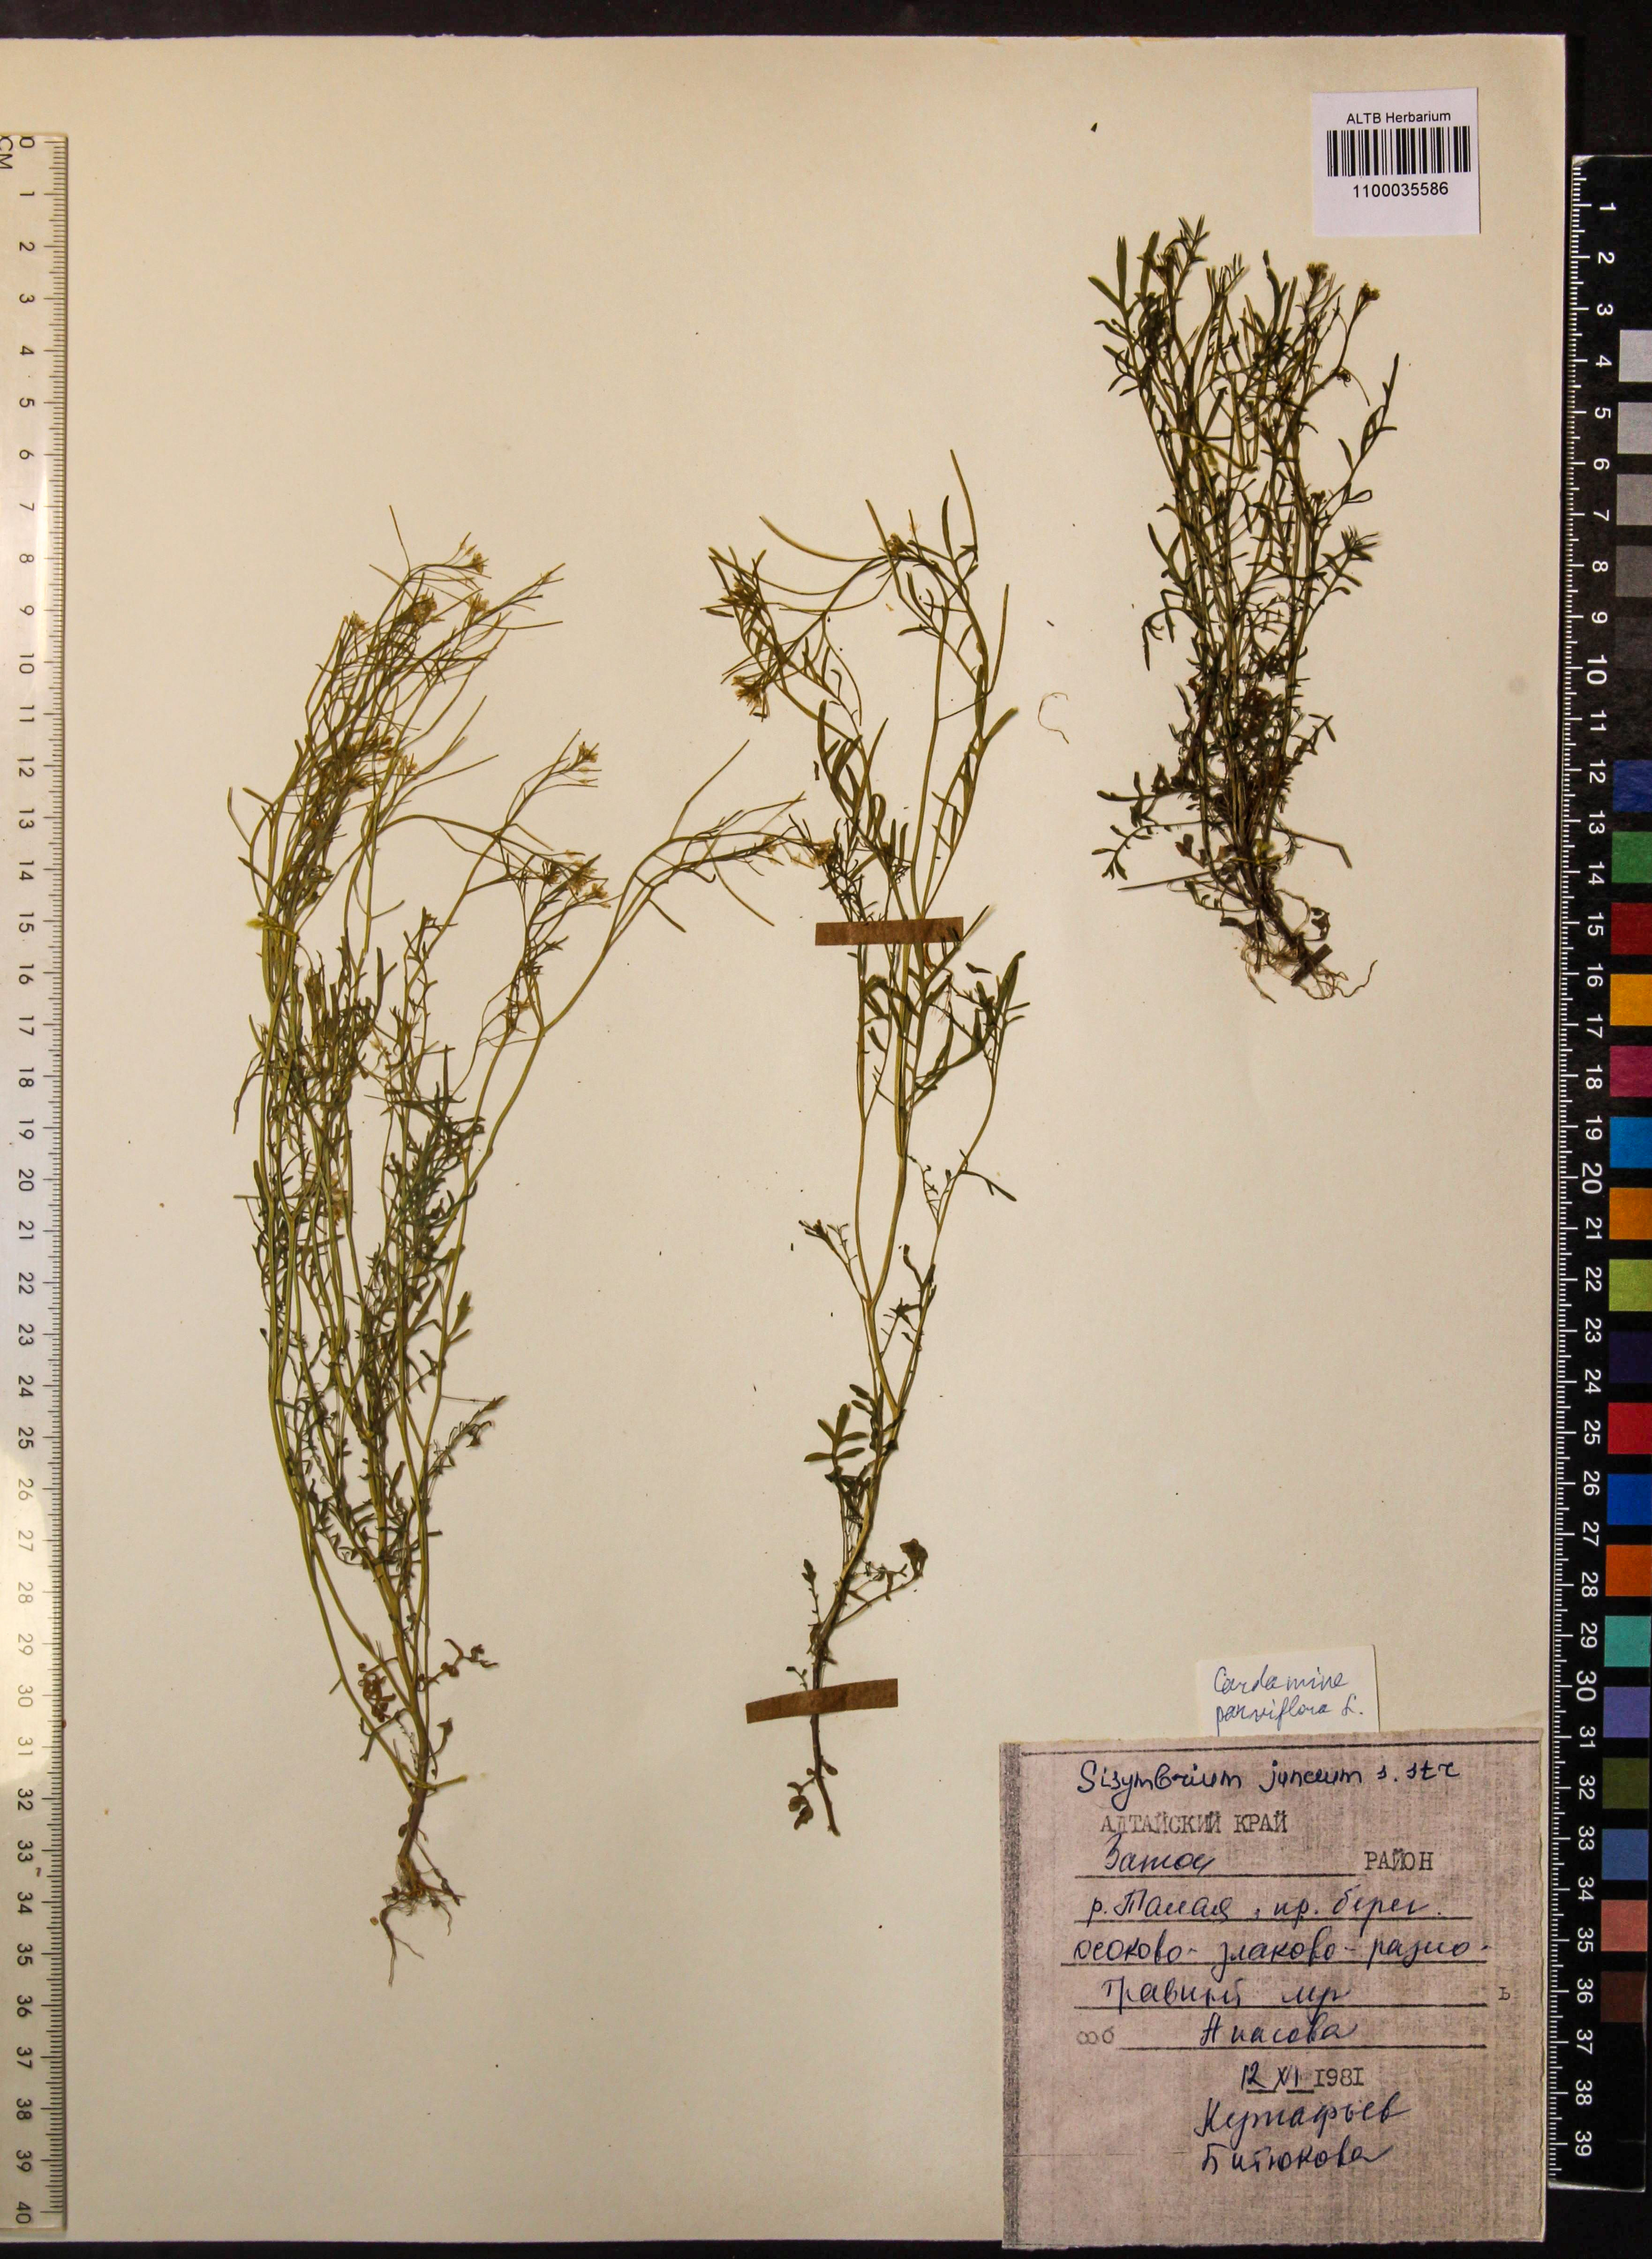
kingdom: Plantae
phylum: Tracheophyta
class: Magnoliopsida
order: Brassicales
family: Brassicaceae
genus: Cardamine
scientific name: Cardamine parviflora
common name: Sand bittercress
